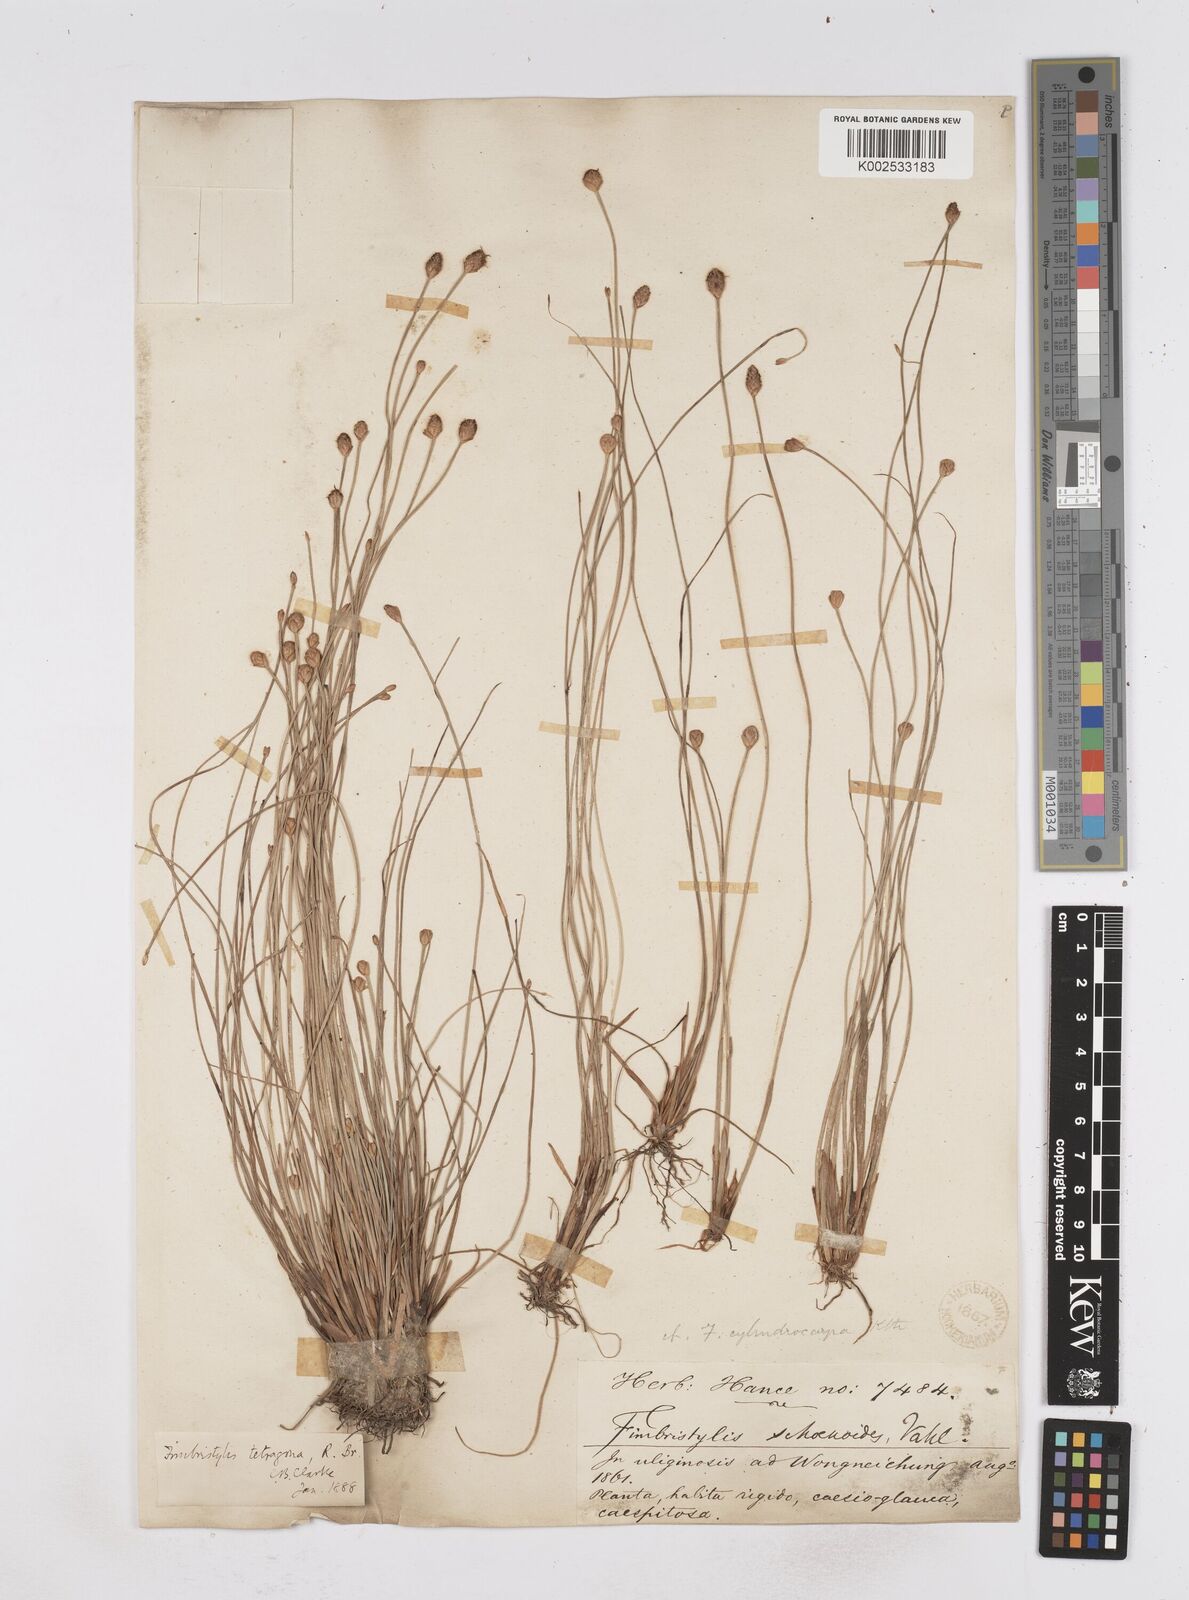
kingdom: Plantae
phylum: Tracheophyta
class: Liliopsida
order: Poales
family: Cyperaceae
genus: Fimbristylis
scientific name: Fimbristylis tetragona
